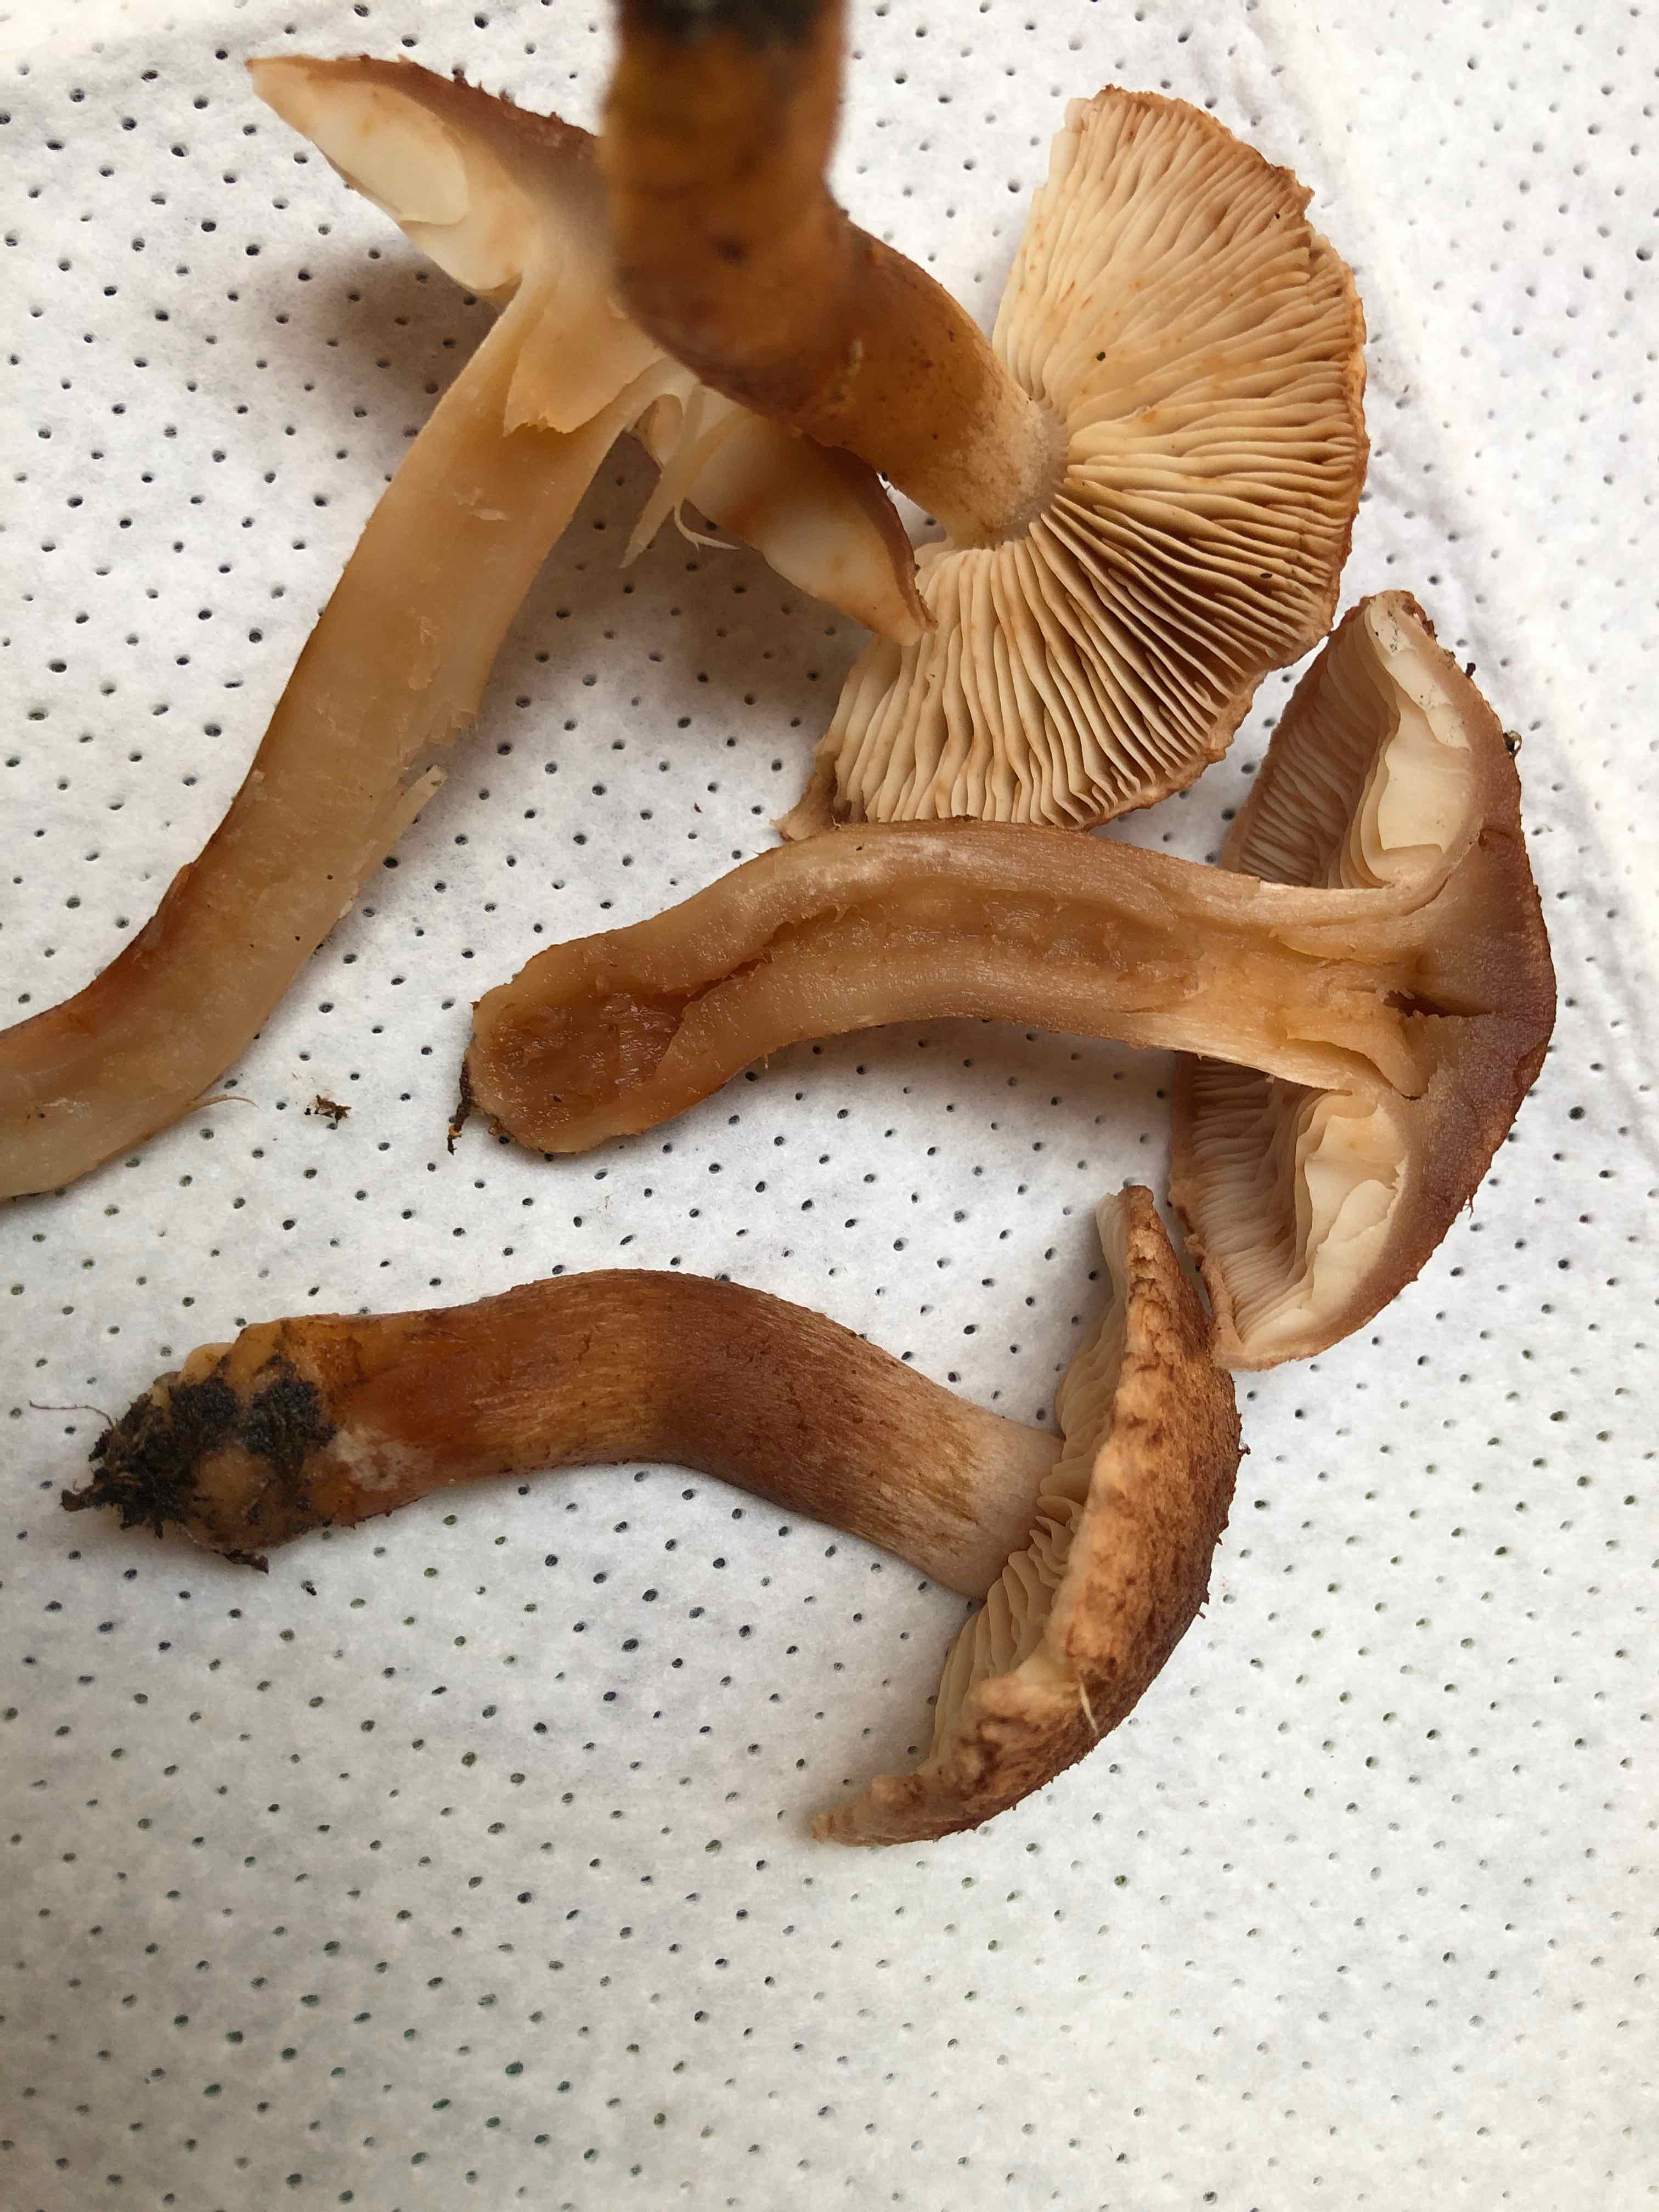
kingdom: Fungi
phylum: Basidiomycota
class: Agaricomycetes
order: Agaricales
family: Tricholomataceae
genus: Tricholoma
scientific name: Tricholoma vaccinum
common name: ko-ridderhat
